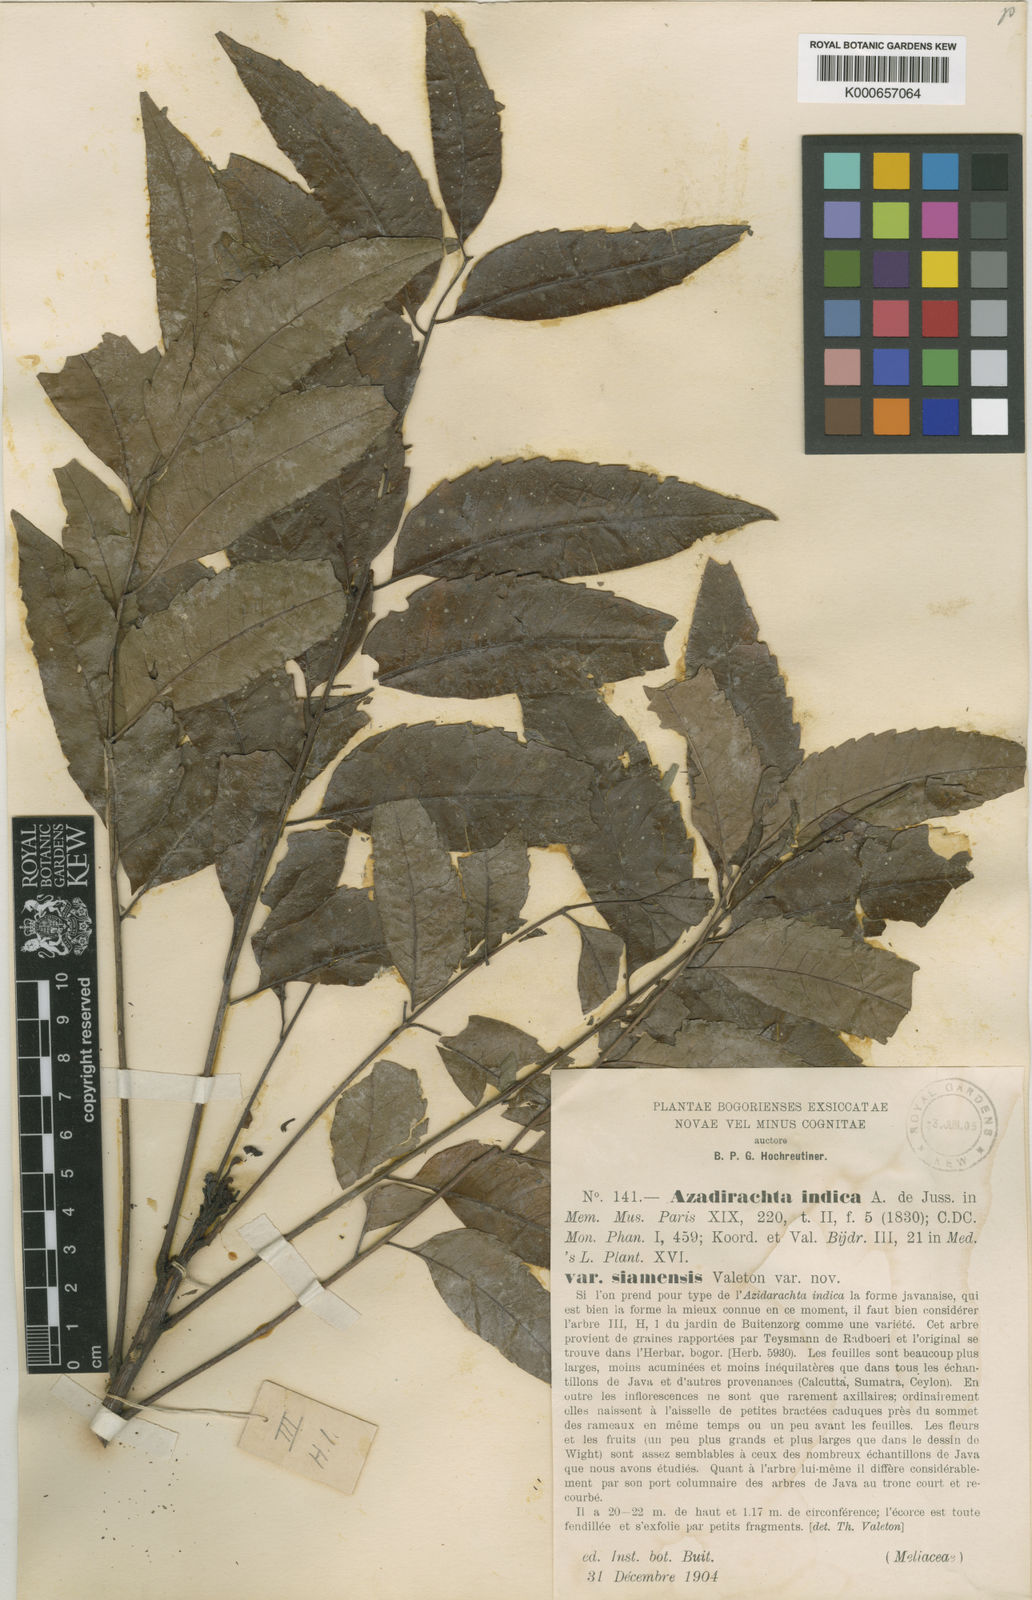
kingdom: Plantae
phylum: Tracheophyta
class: Magnoliopsida
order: Sapindales
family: Meliaceae
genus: Azadirachta
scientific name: Azadirachta indica
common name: Neem
